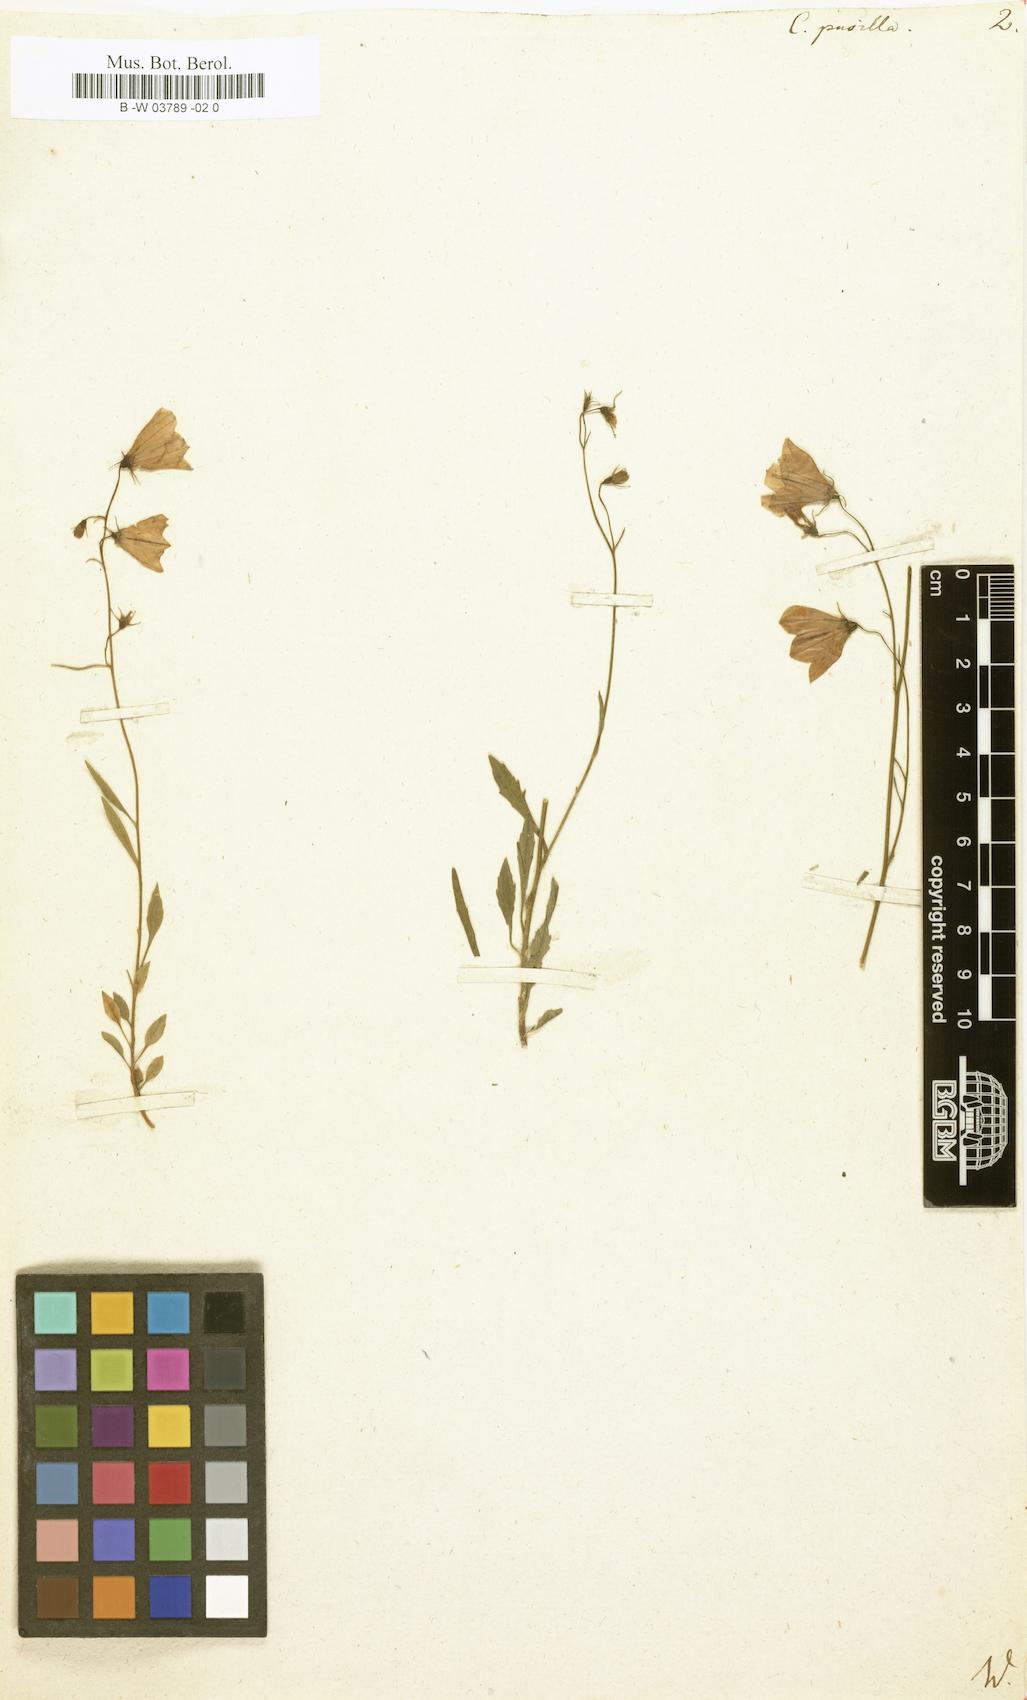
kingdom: Plantae
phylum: Tracheophyta
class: Magnoliopsida
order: Asterales
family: Campanulaceae
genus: Campanula
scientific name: Campanula cochleariifolia
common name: Fairies'-thimbles
